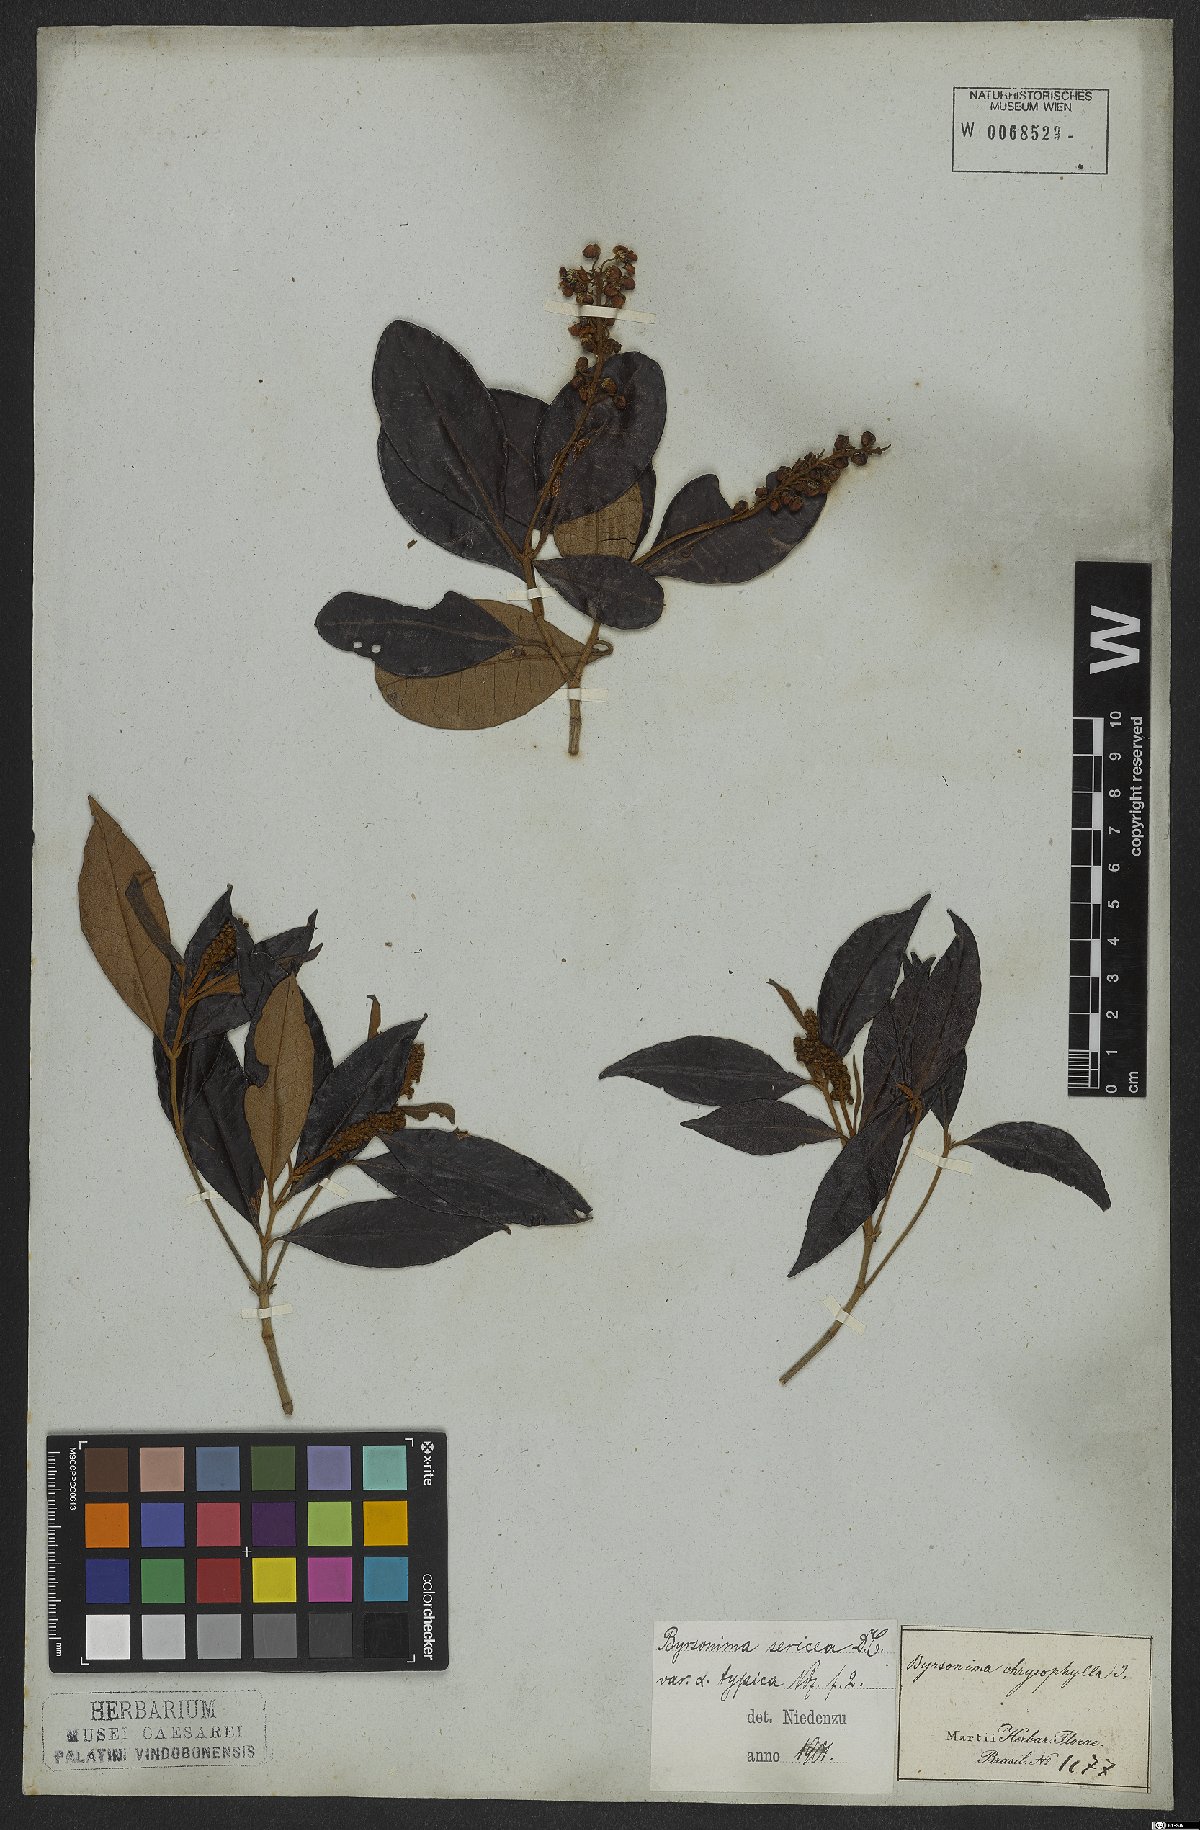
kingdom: Plantae
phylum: Tracheophyta
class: Magnoliopsida
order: Malpighiales
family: Malpighiaceae
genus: Byrsonima
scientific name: Byrsonima sericea
